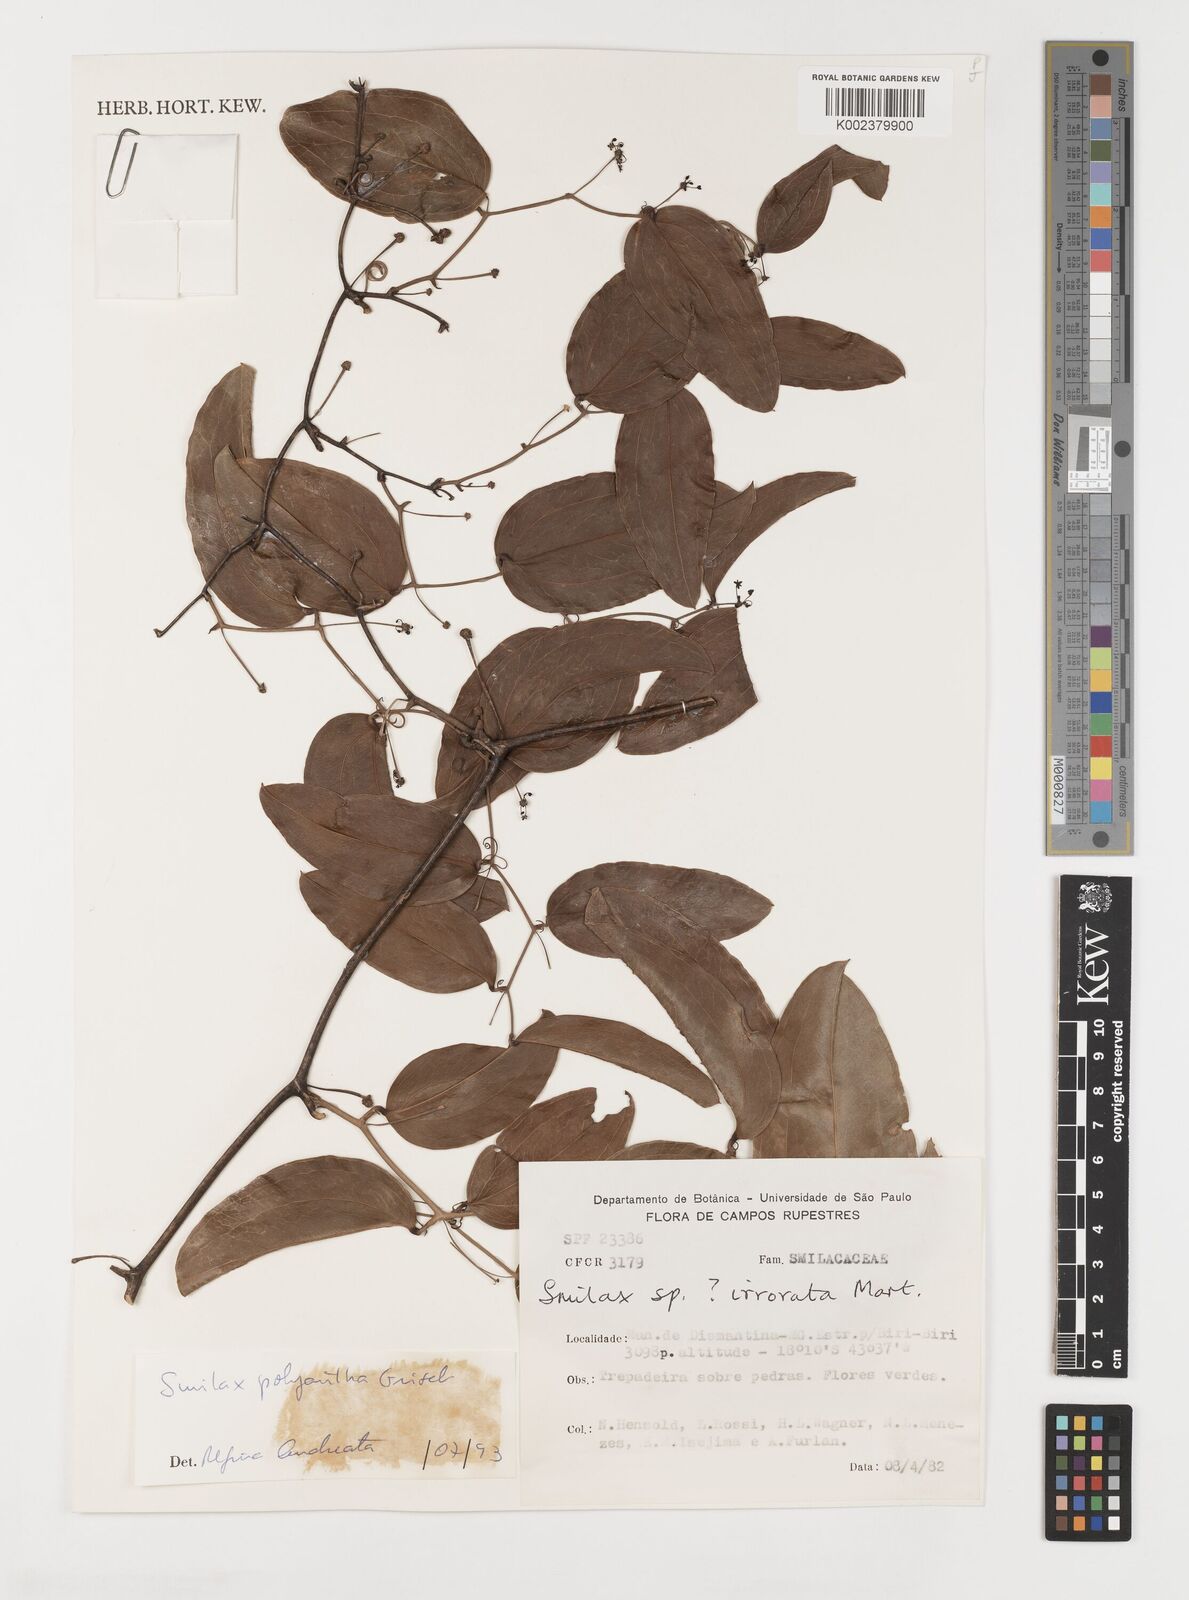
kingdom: Plantae
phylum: Tracheophyta
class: Liliopsida
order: Liliales
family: Smilacaceae
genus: Smilax
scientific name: Smilax polyantha
